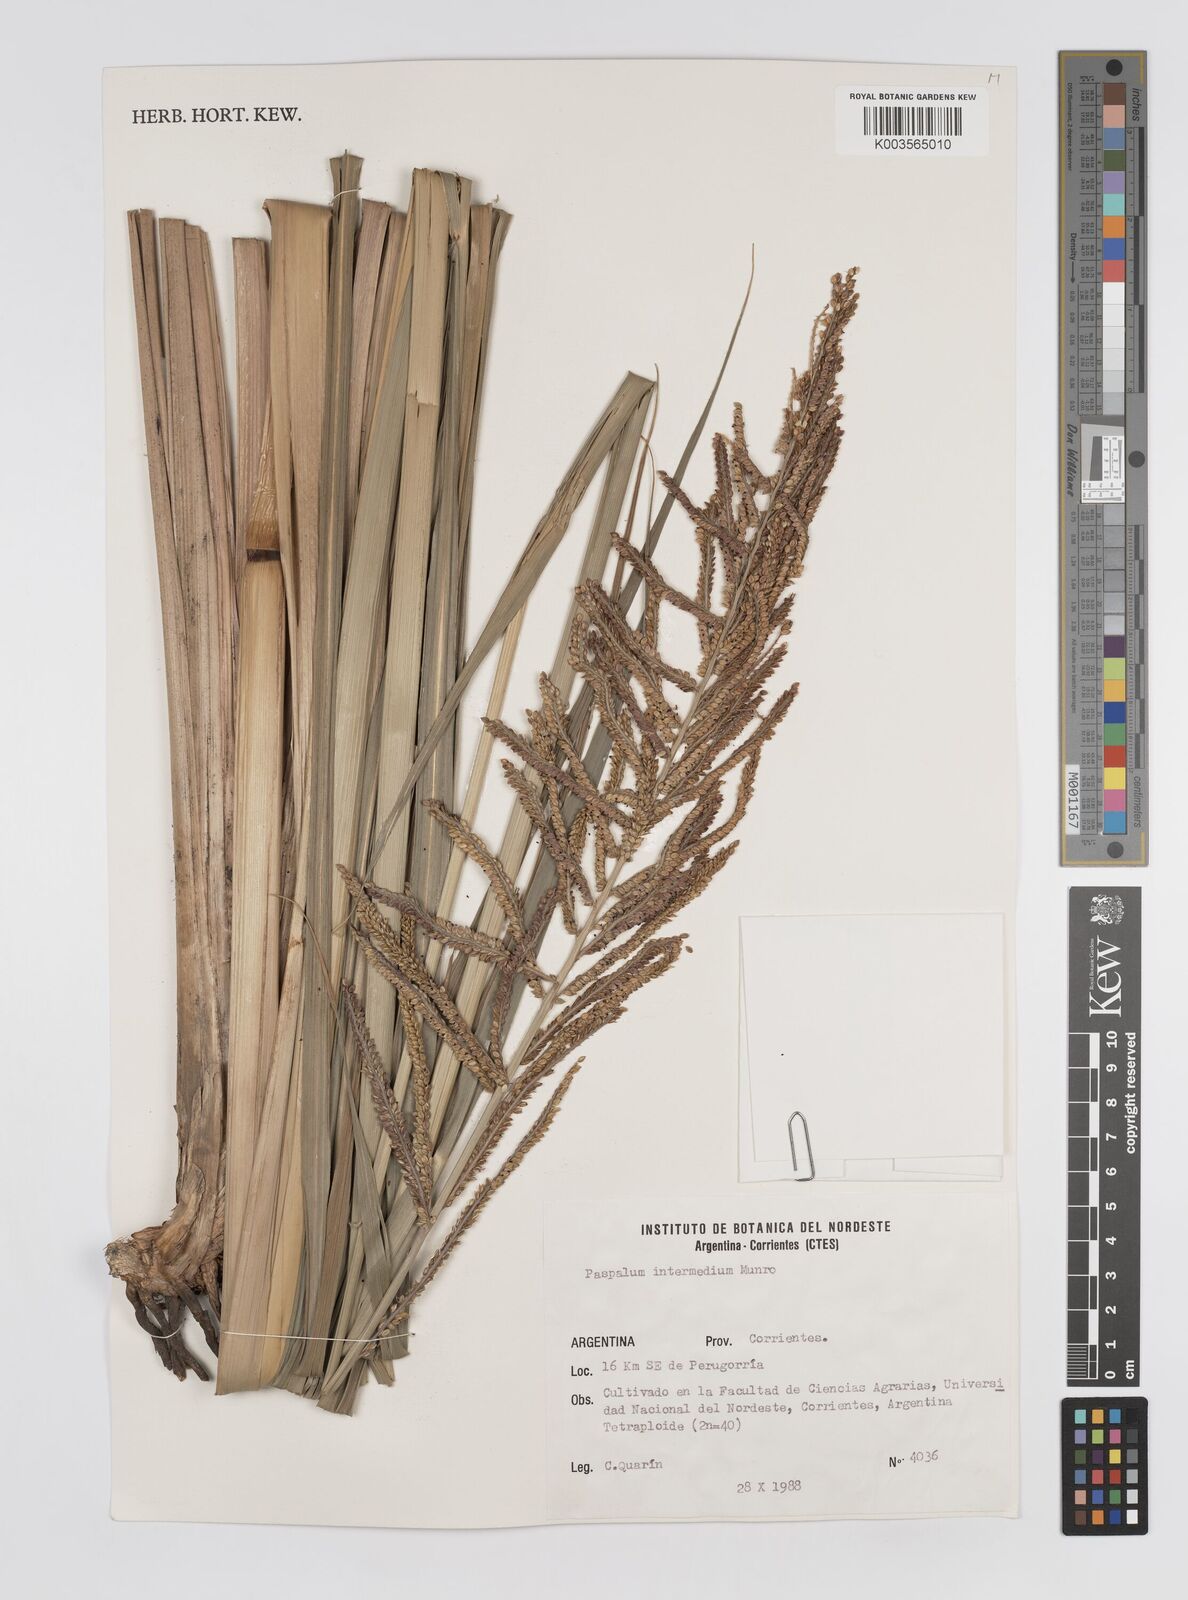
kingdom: Plantae
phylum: Tracheophyta
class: Liliopsida
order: Poales
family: Poaceae
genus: Paspalum
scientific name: Paspalum intermedium
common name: Intermediate paspalum
